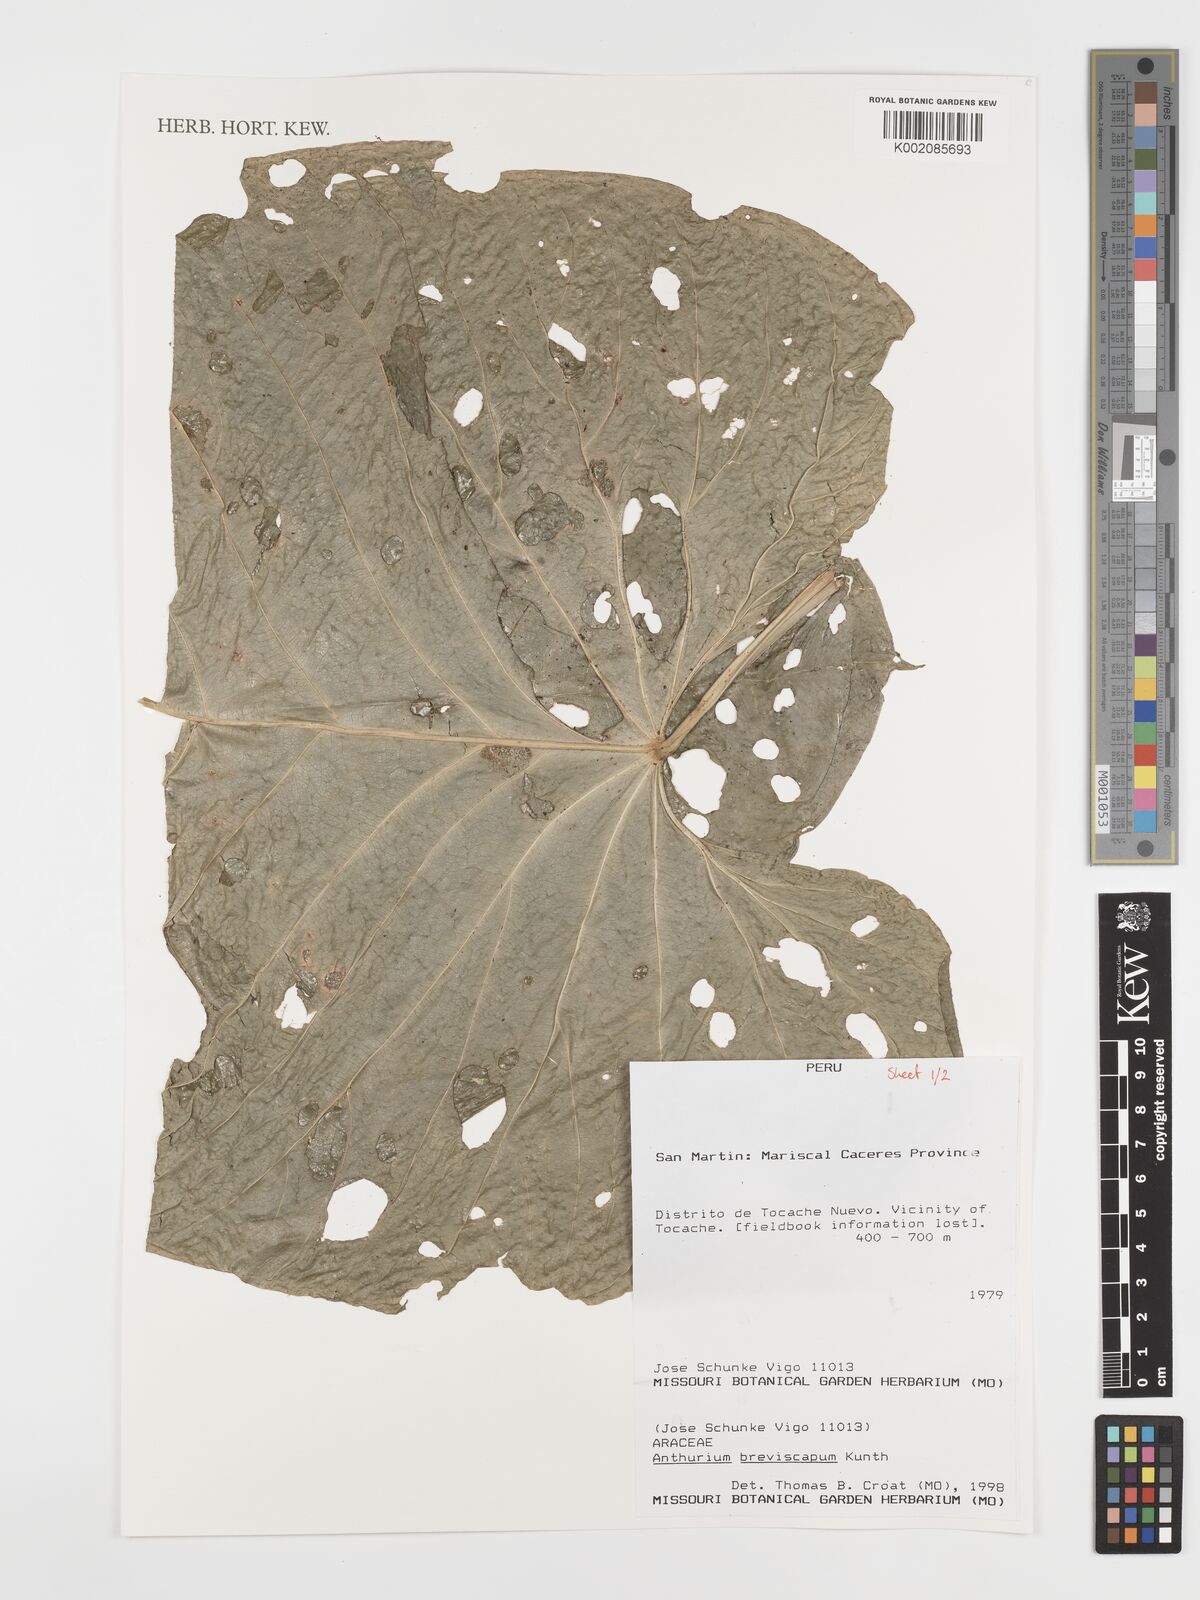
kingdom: Plantae
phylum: Tracheophyta
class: Liliopsida
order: Alismatales
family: Araceae
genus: Anthurium
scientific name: Anthurium breviscapum
